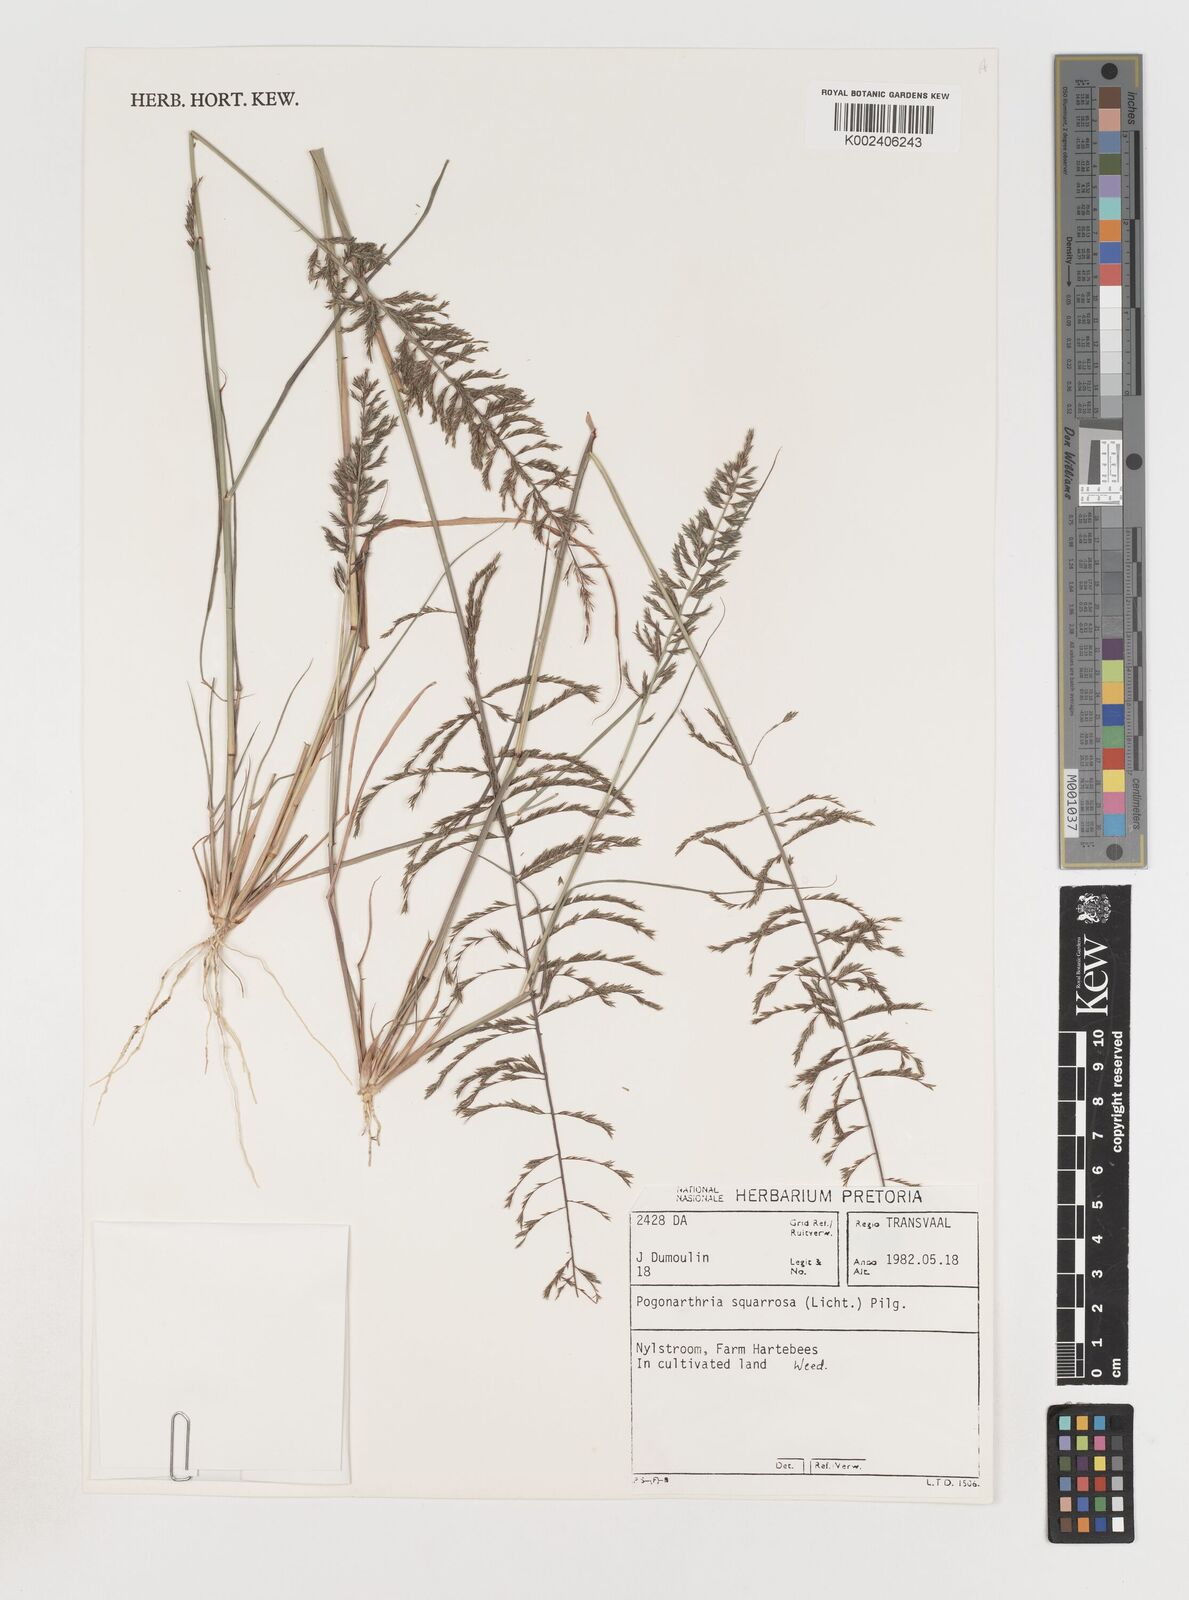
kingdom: Plantae
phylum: Tracheophyta
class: Liliopsida
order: Poales
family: Poaceae
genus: Pogonarthria
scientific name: Pogonarthria squarrosa
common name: Grass
